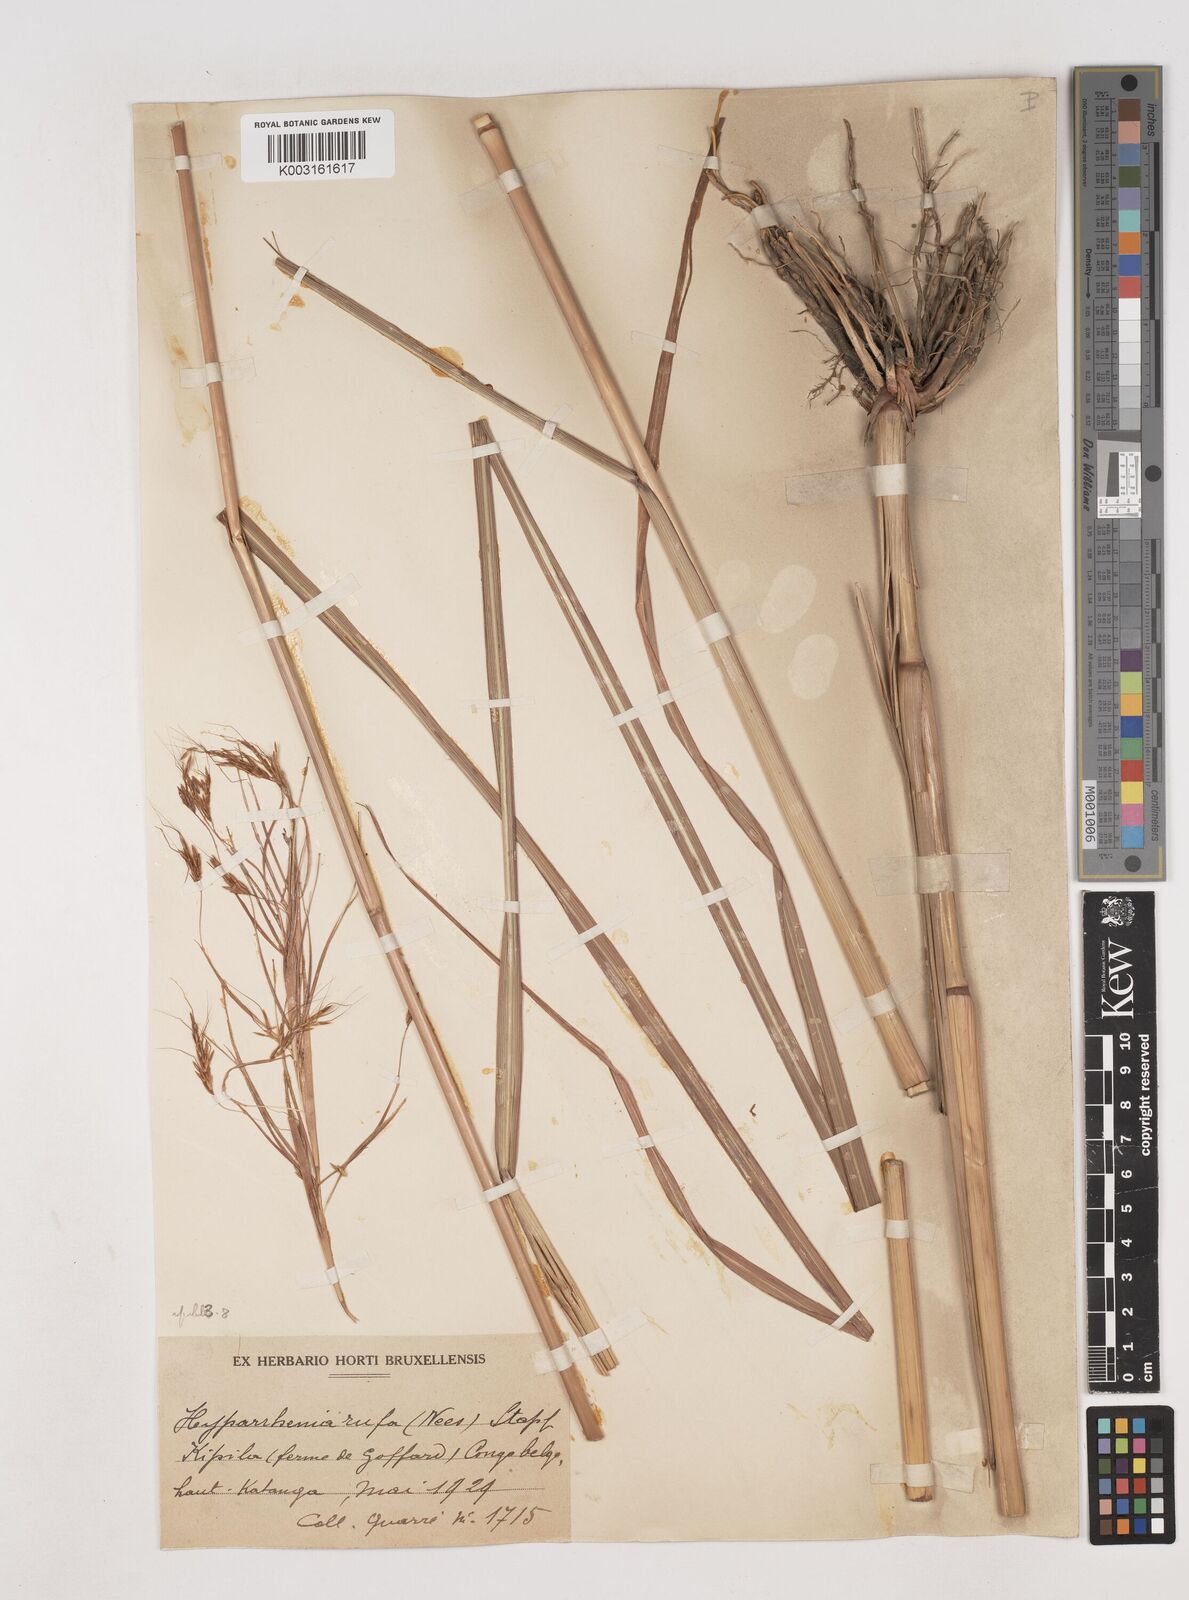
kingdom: Plantae
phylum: Tracheophyta
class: Liliopsida
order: Poales
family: Poaceae
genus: Hyparrhenia
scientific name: Hyparrhenia rufa
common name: Jaraguagrass
